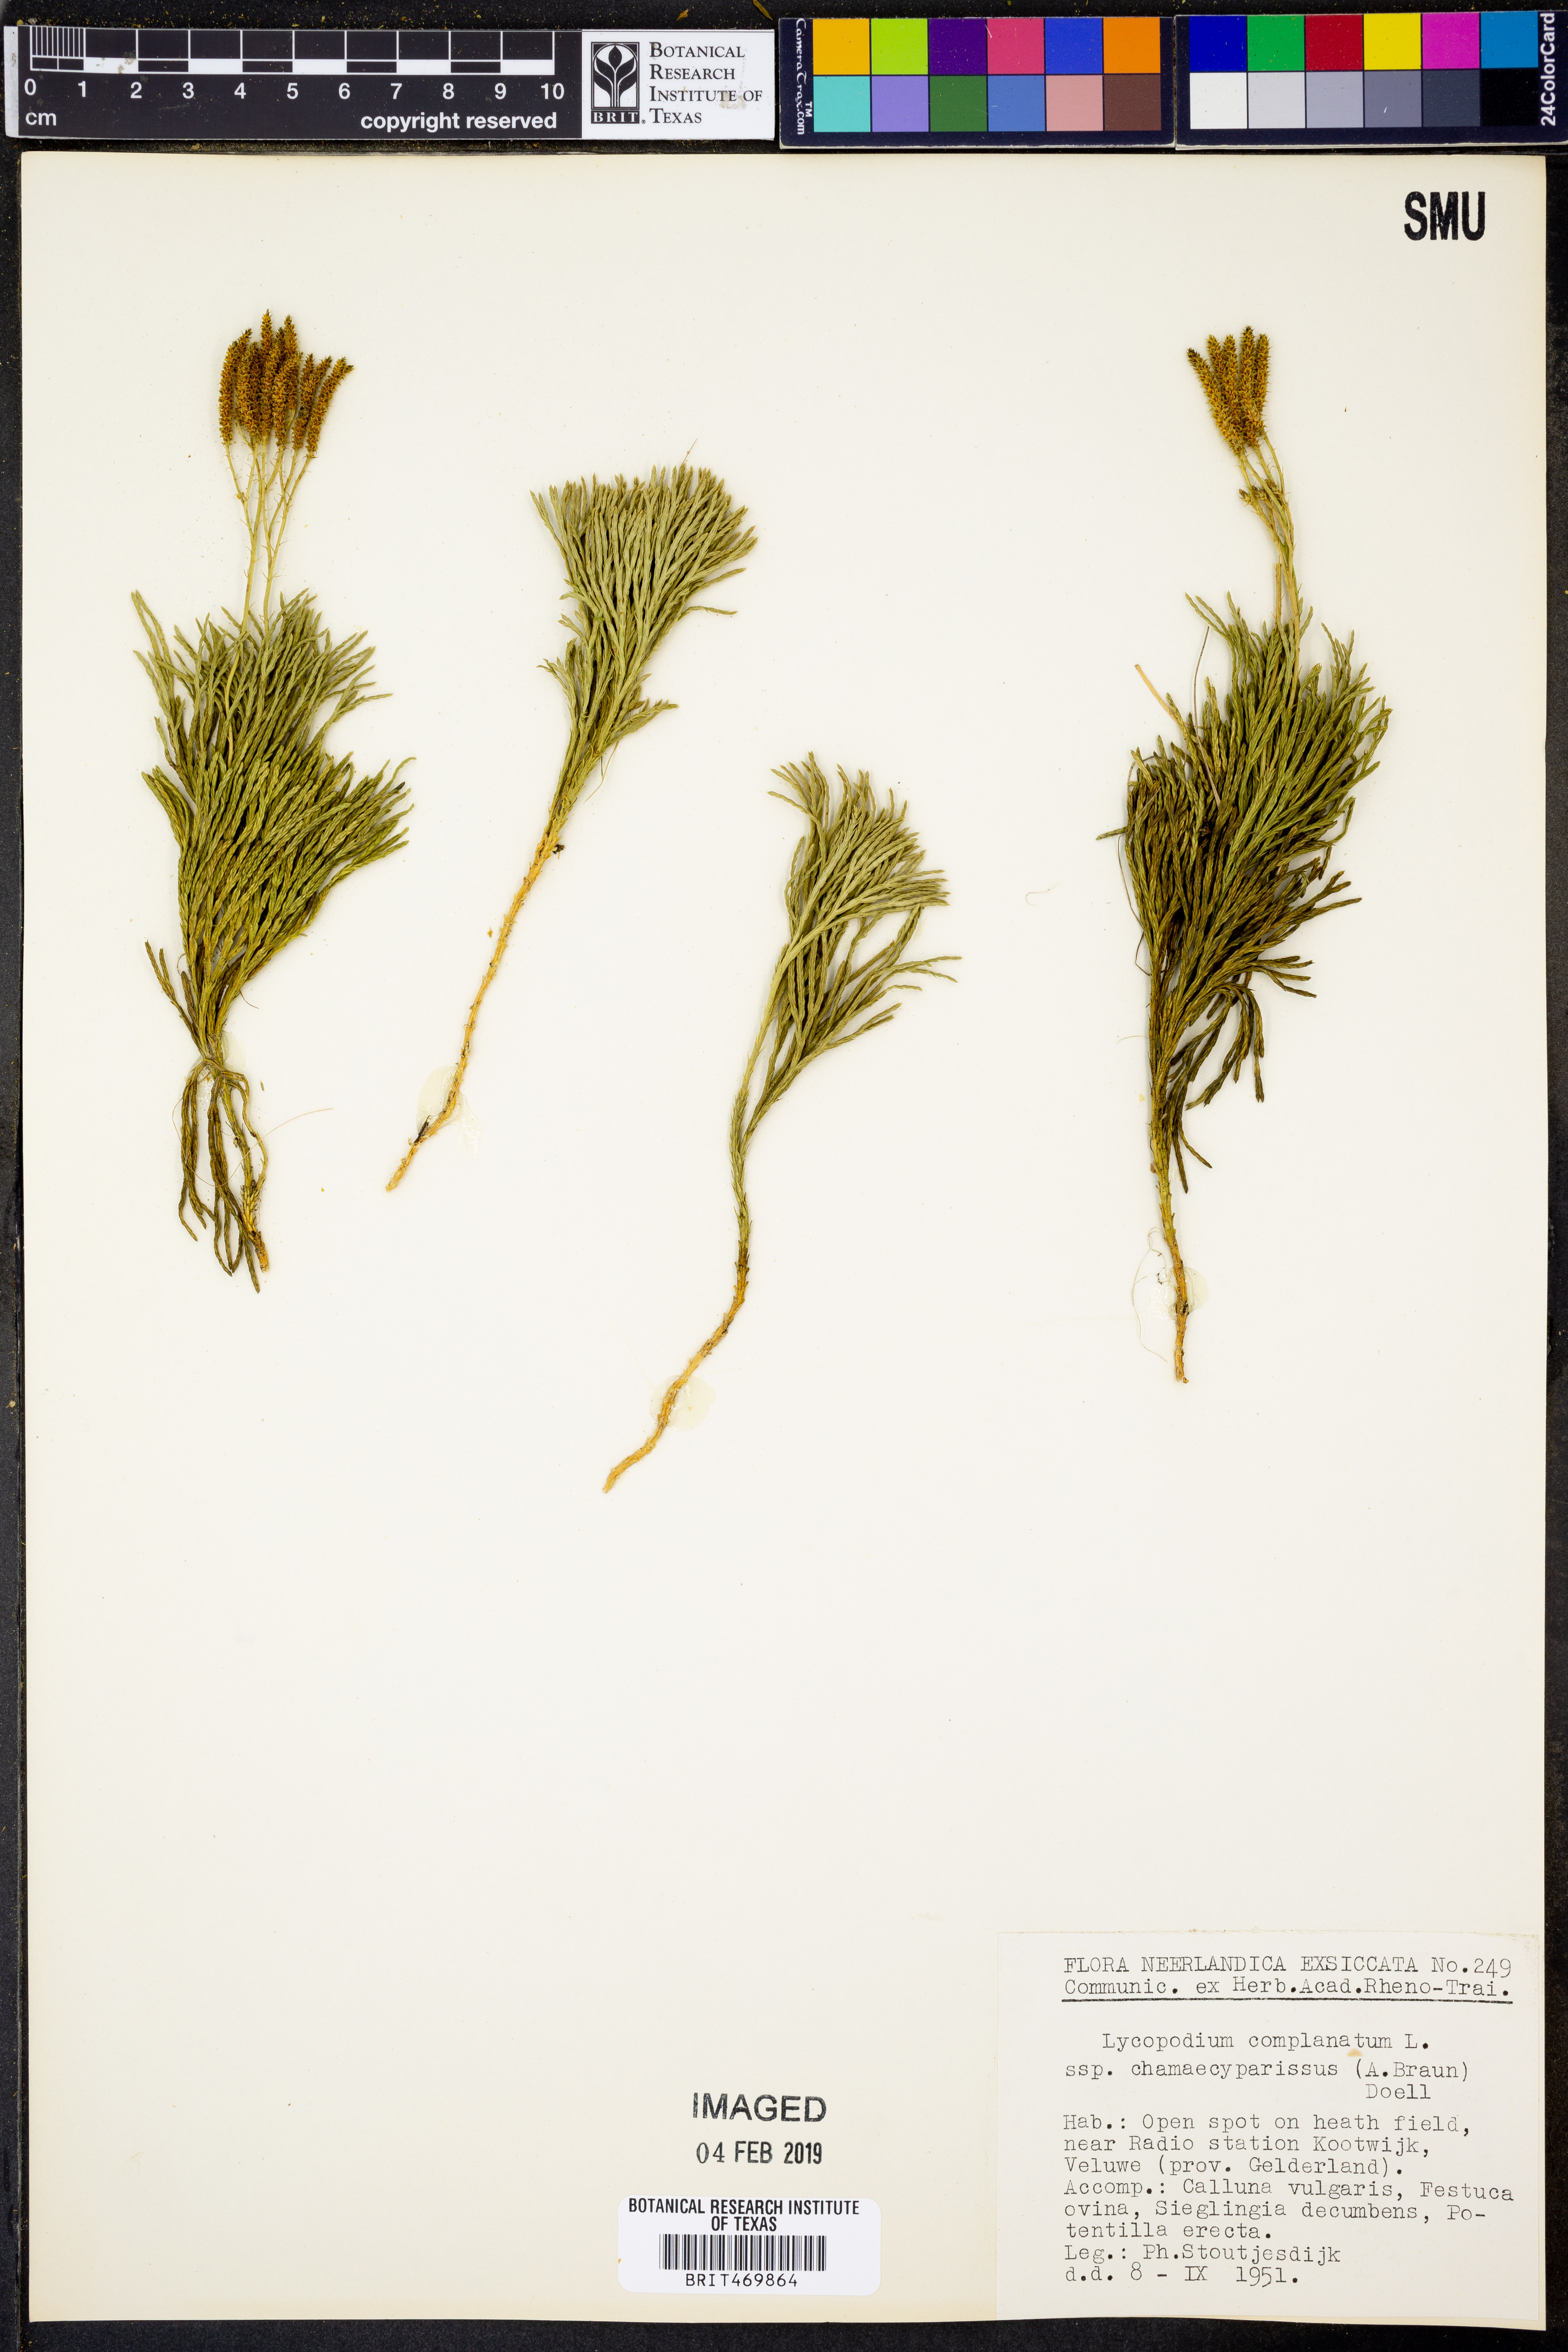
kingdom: Plantae
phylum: Tracheophyta
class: Lycopodiopsida
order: Lycopodiales
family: Lycopodiaceae
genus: Diphasiastrum
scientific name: Diphasiastrum tristachyum
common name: Blue ground-cedar
